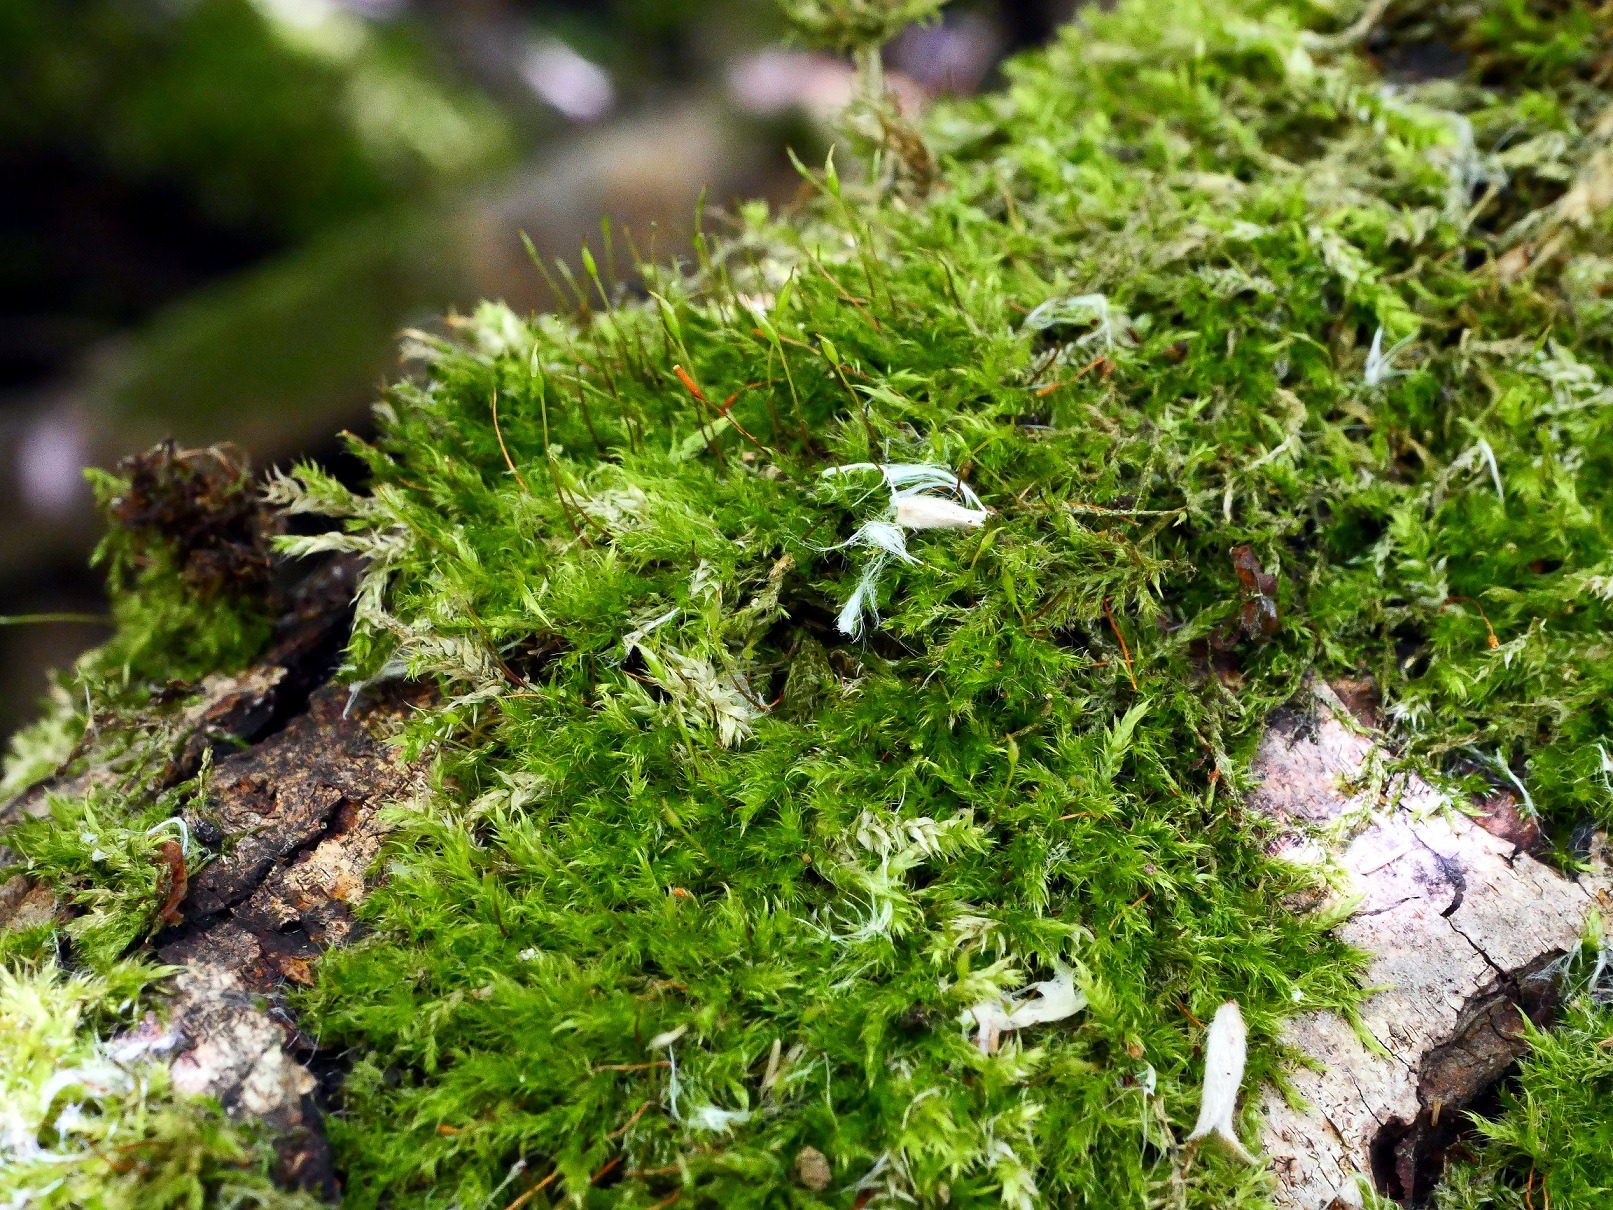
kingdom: Plantae
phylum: Bryophyta
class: Bryopsida
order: Hypnales
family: Pylaisiaceae
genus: Pylaisia
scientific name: Pylaisia polyantha
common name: Mangefrugtet aspemos
